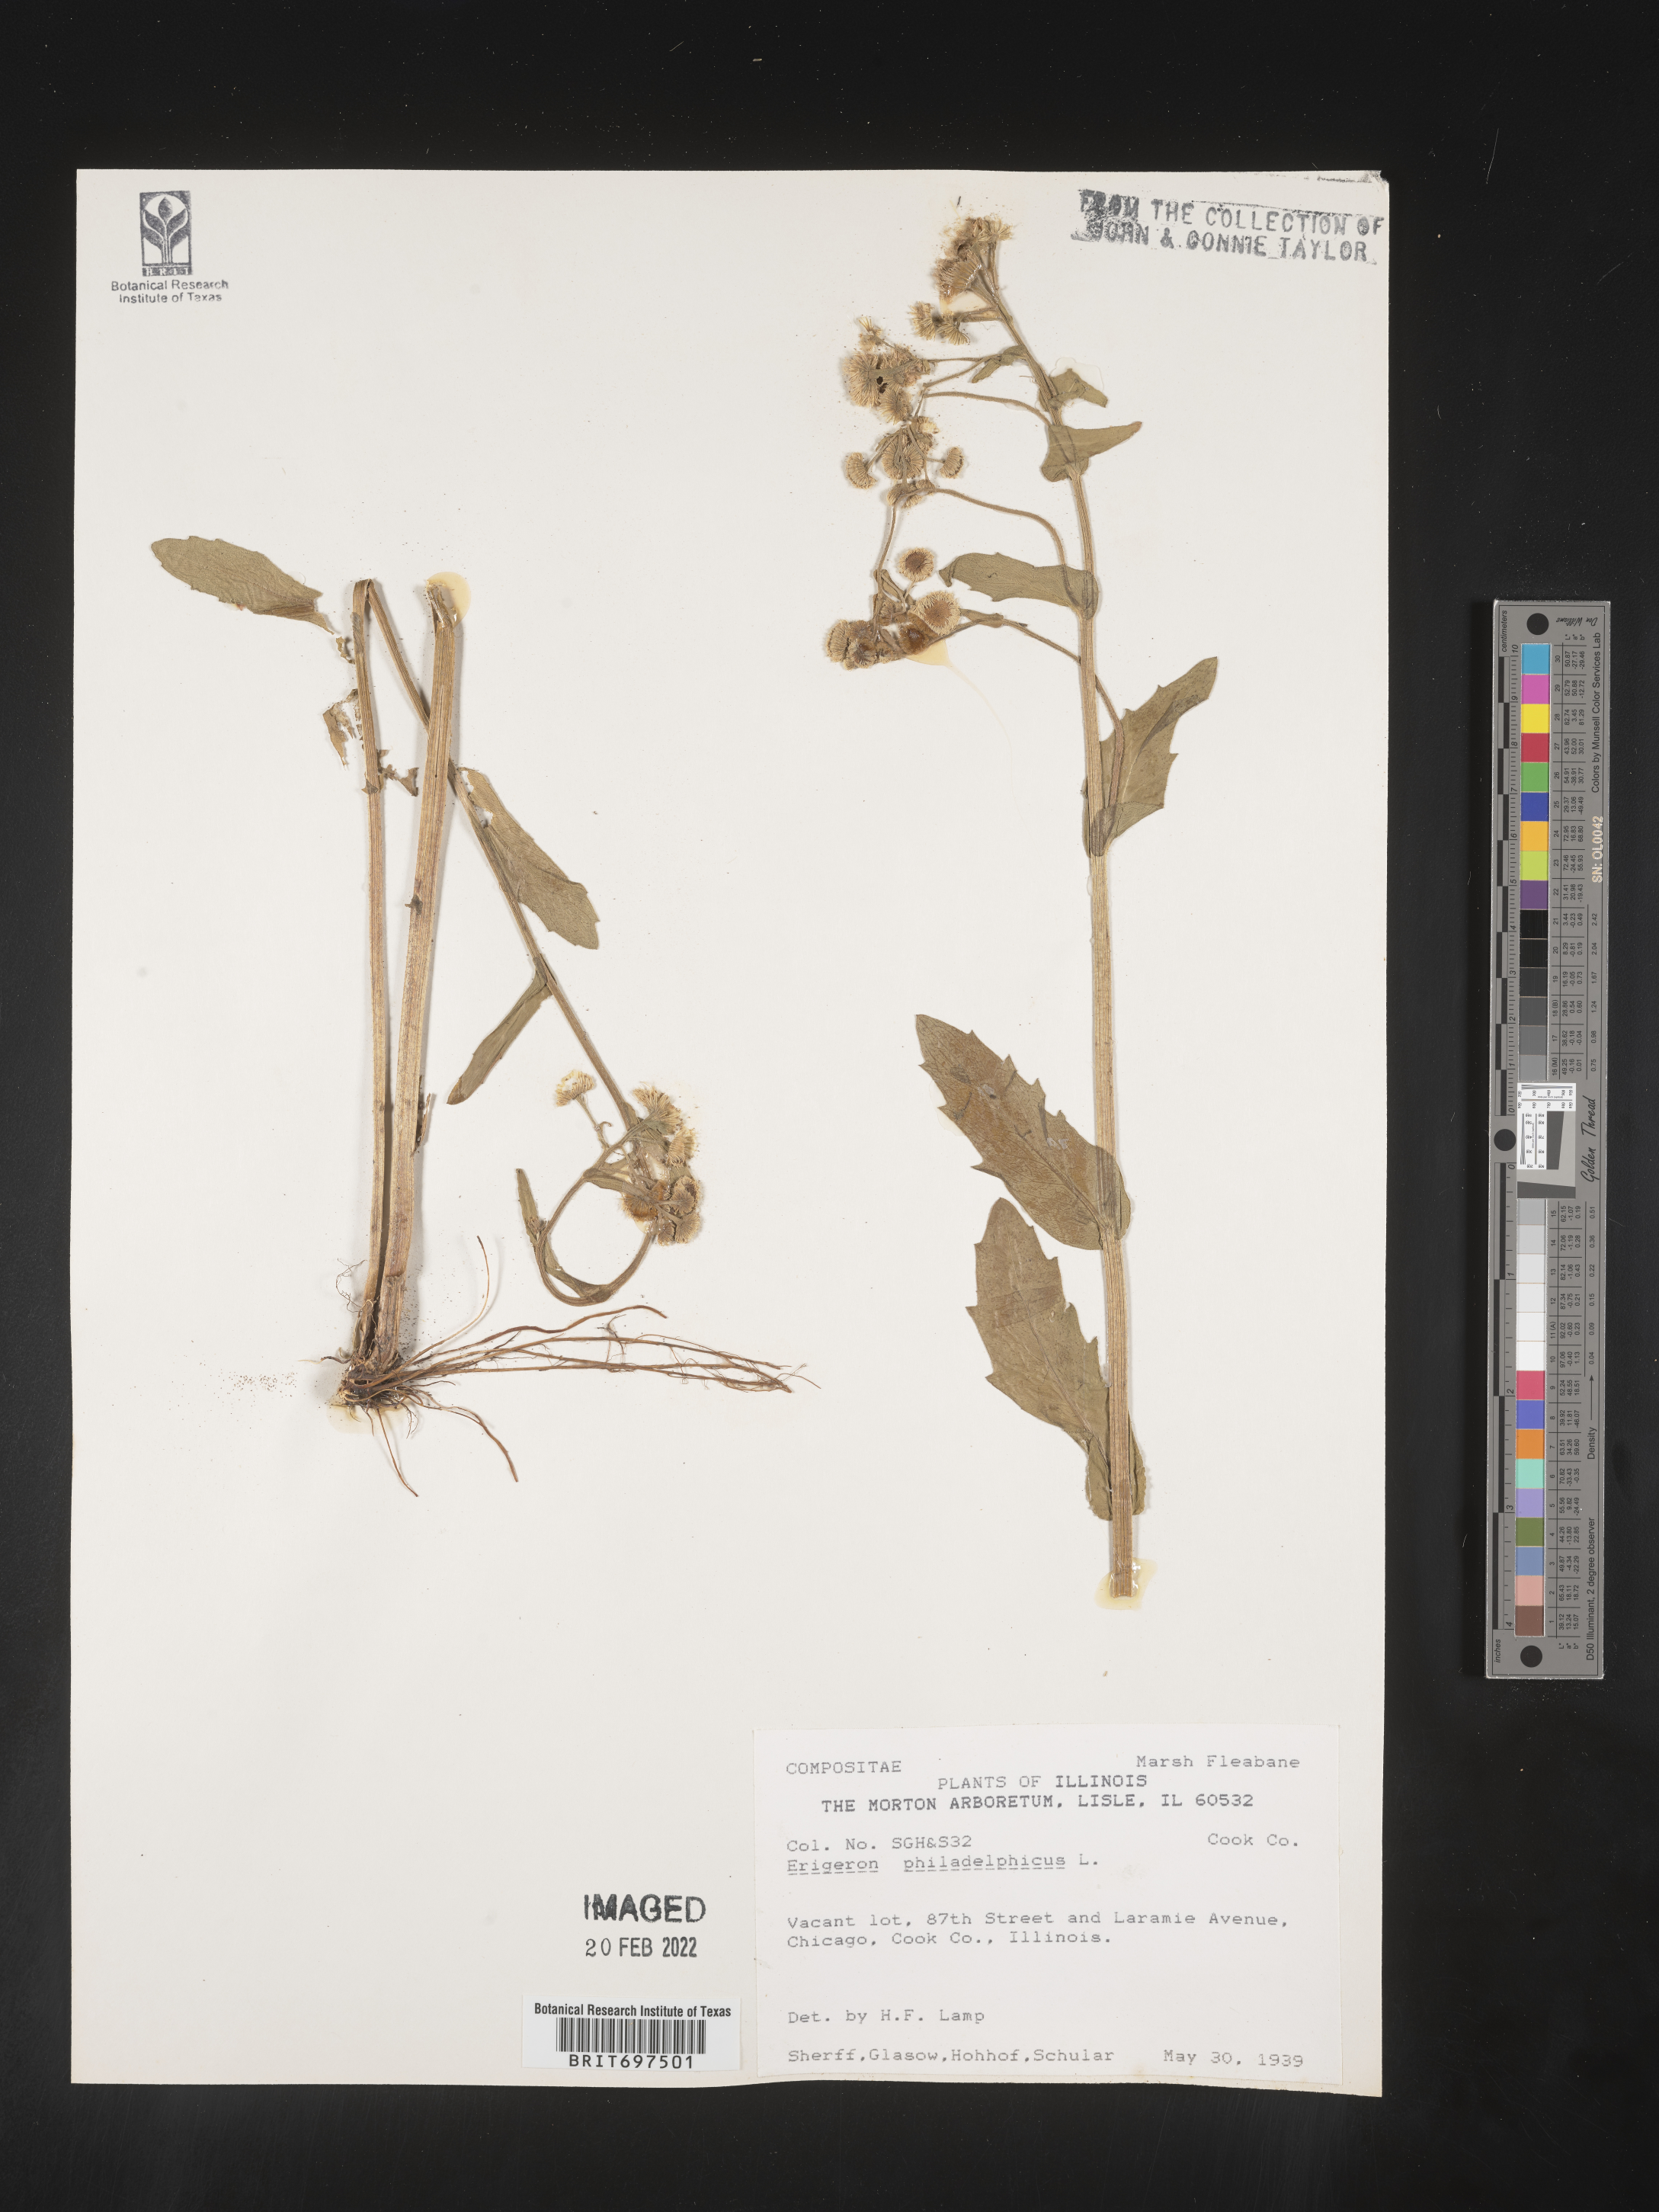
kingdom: Plantae
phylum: Tracheophyta
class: Magnoliopsida
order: Asterales
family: Asteraceae
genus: Erigeron
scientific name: Erigeron philadelphicus
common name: Robin's-plantain
